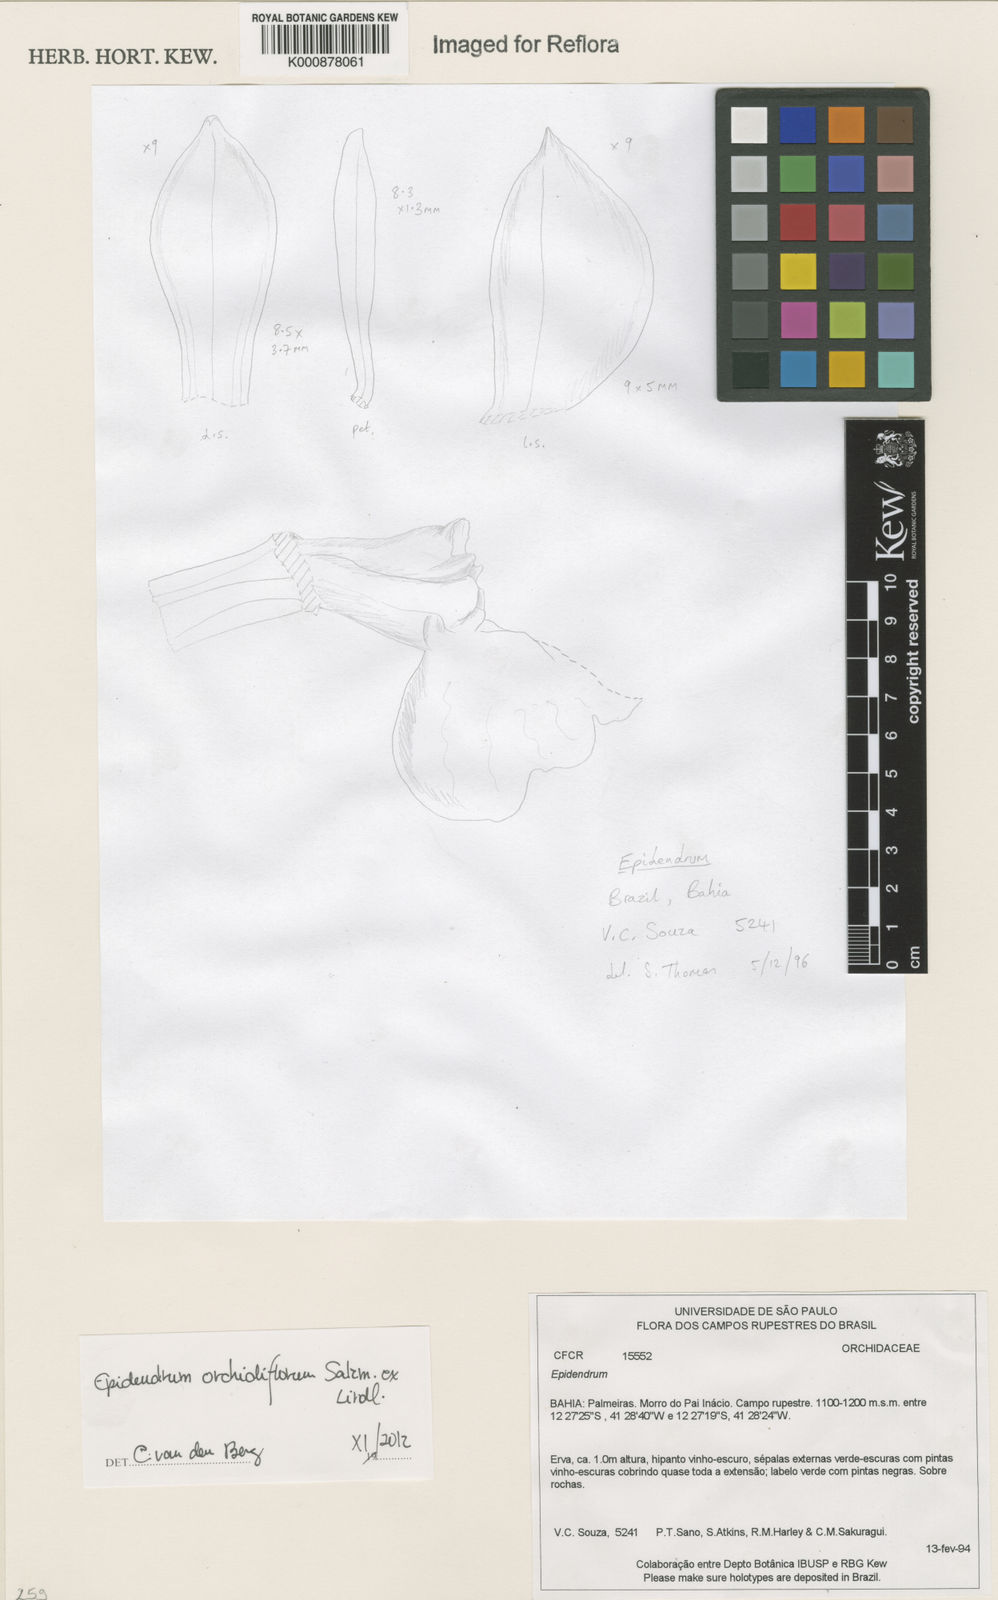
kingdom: Plantae
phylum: Tracheophyta
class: Liliopsida
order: Asparagales
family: Orchidaceae
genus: Epidendrum
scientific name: Epidendrum orchidiflorum
